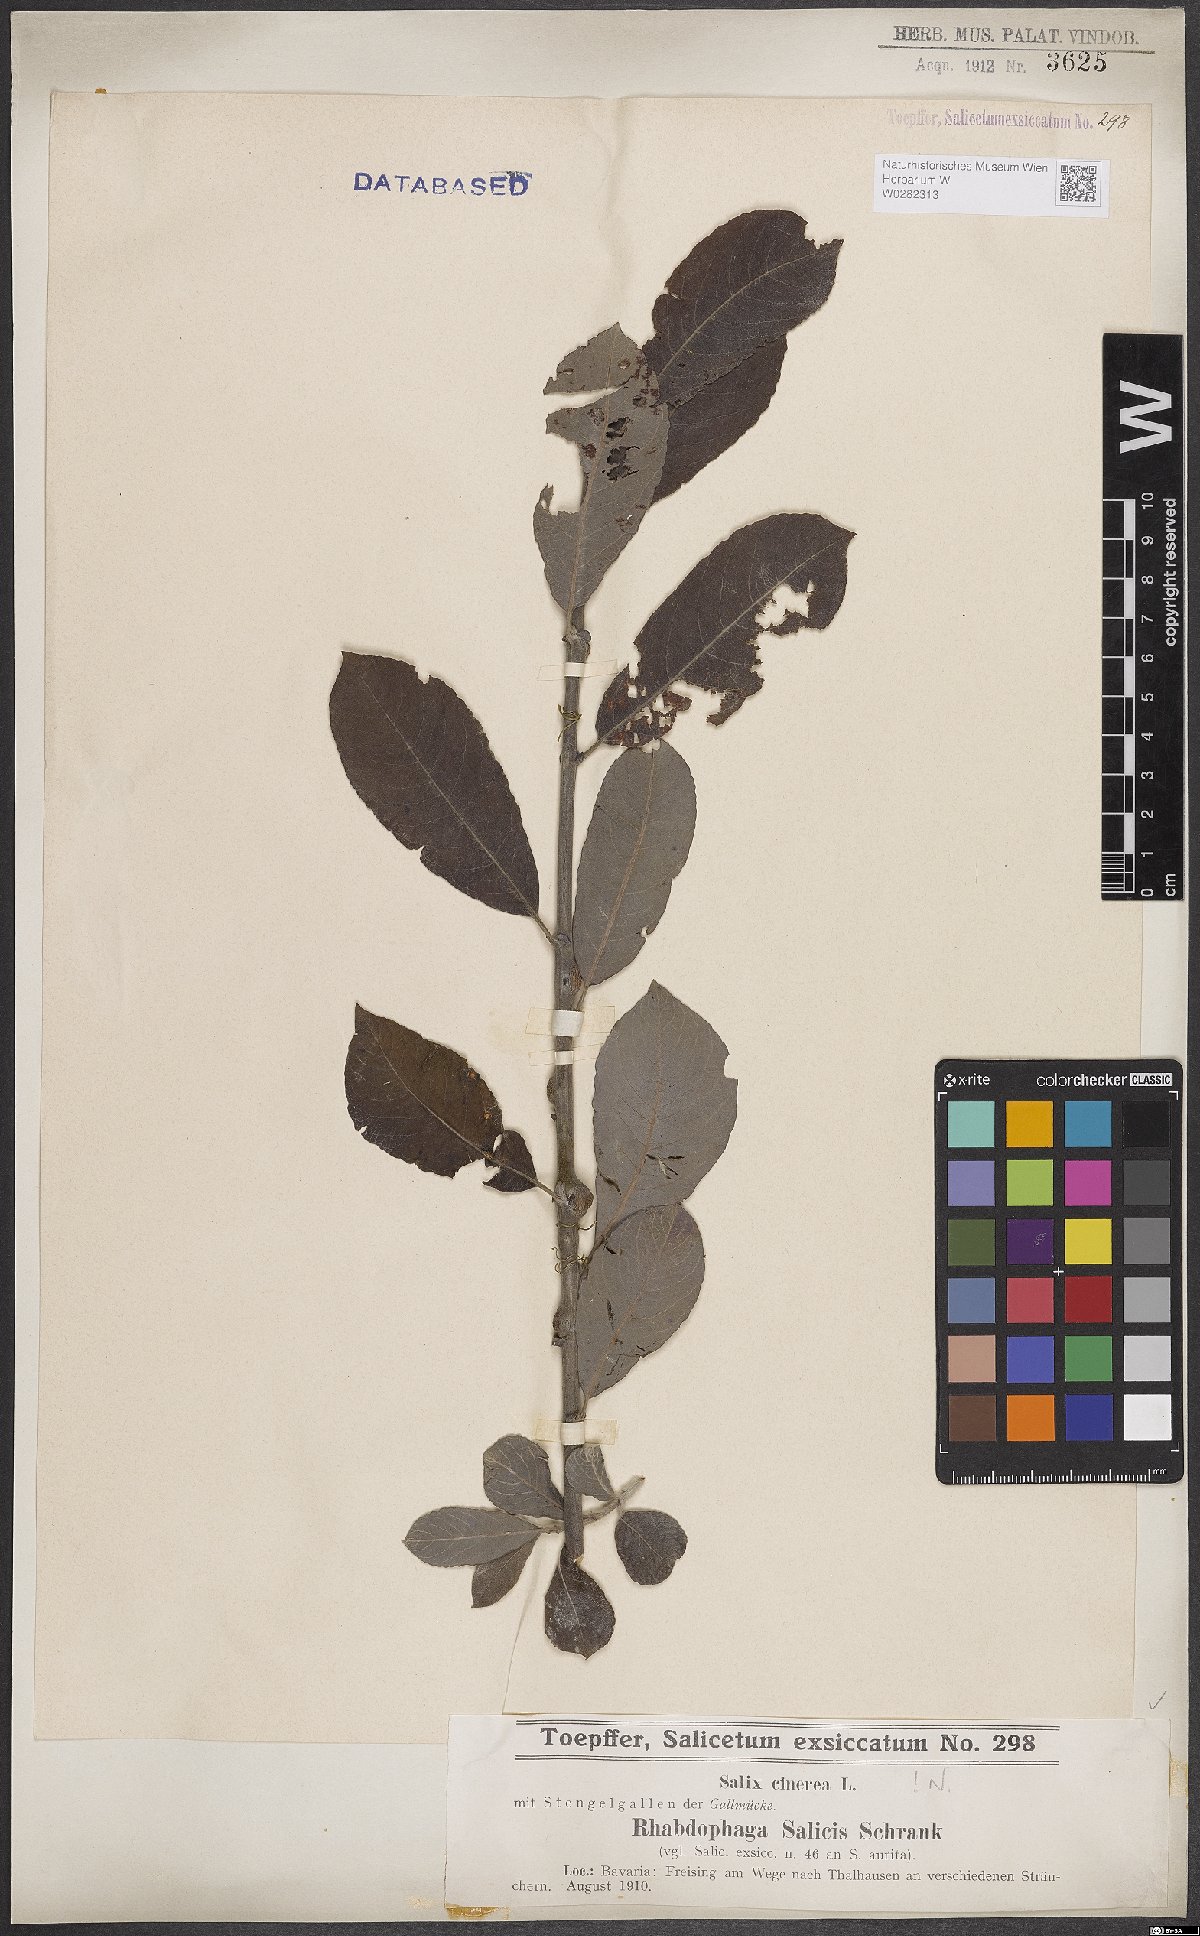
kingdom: Plantae
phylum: Tracheophyta
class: Magnoliopsida
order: Malpighiales
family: Salicaceae
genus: Salix
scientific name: Salix cinerea
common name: Common sallow
